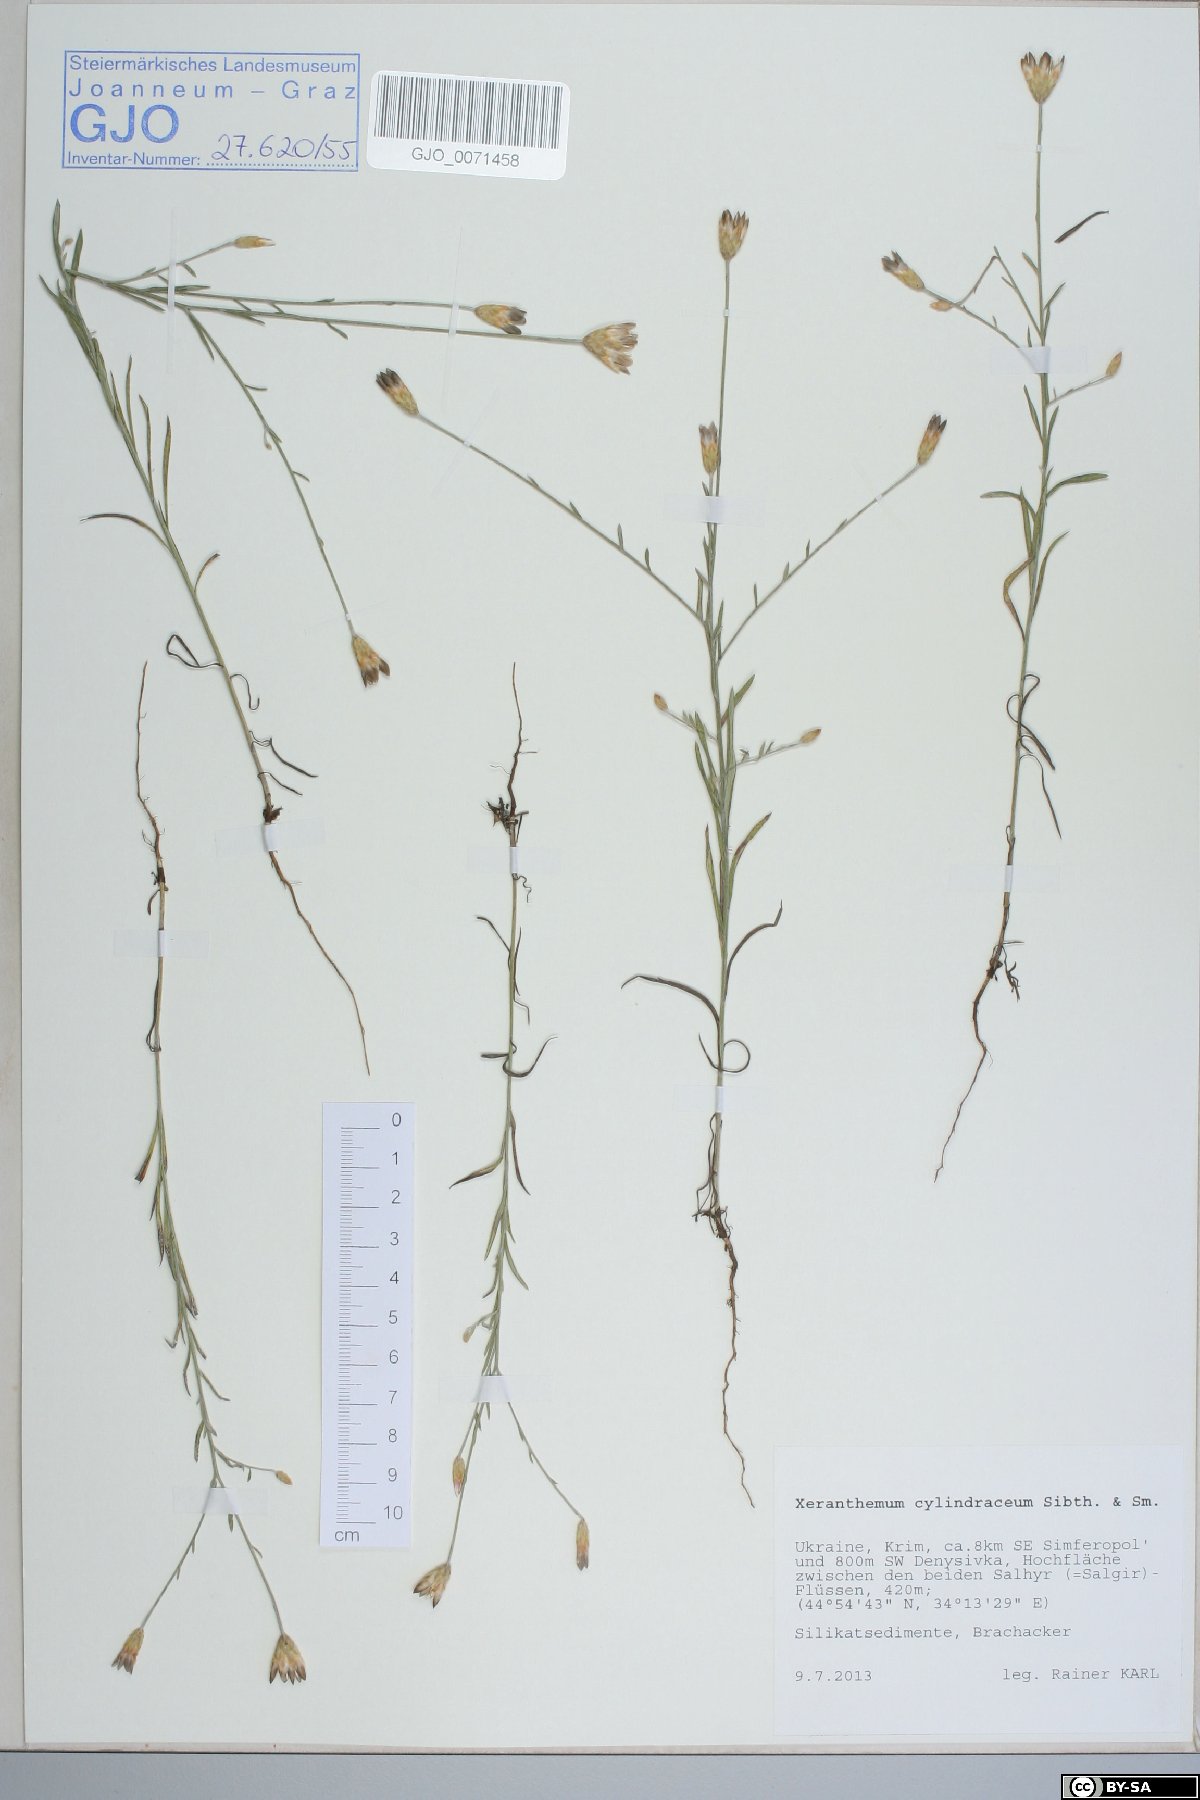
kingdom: Plantae
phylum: Tracheophyta
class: Magnoliopsida
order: Asterales
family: Asteraceae
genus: Xeranthemum
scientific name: Xeranthemum cylindraceum
